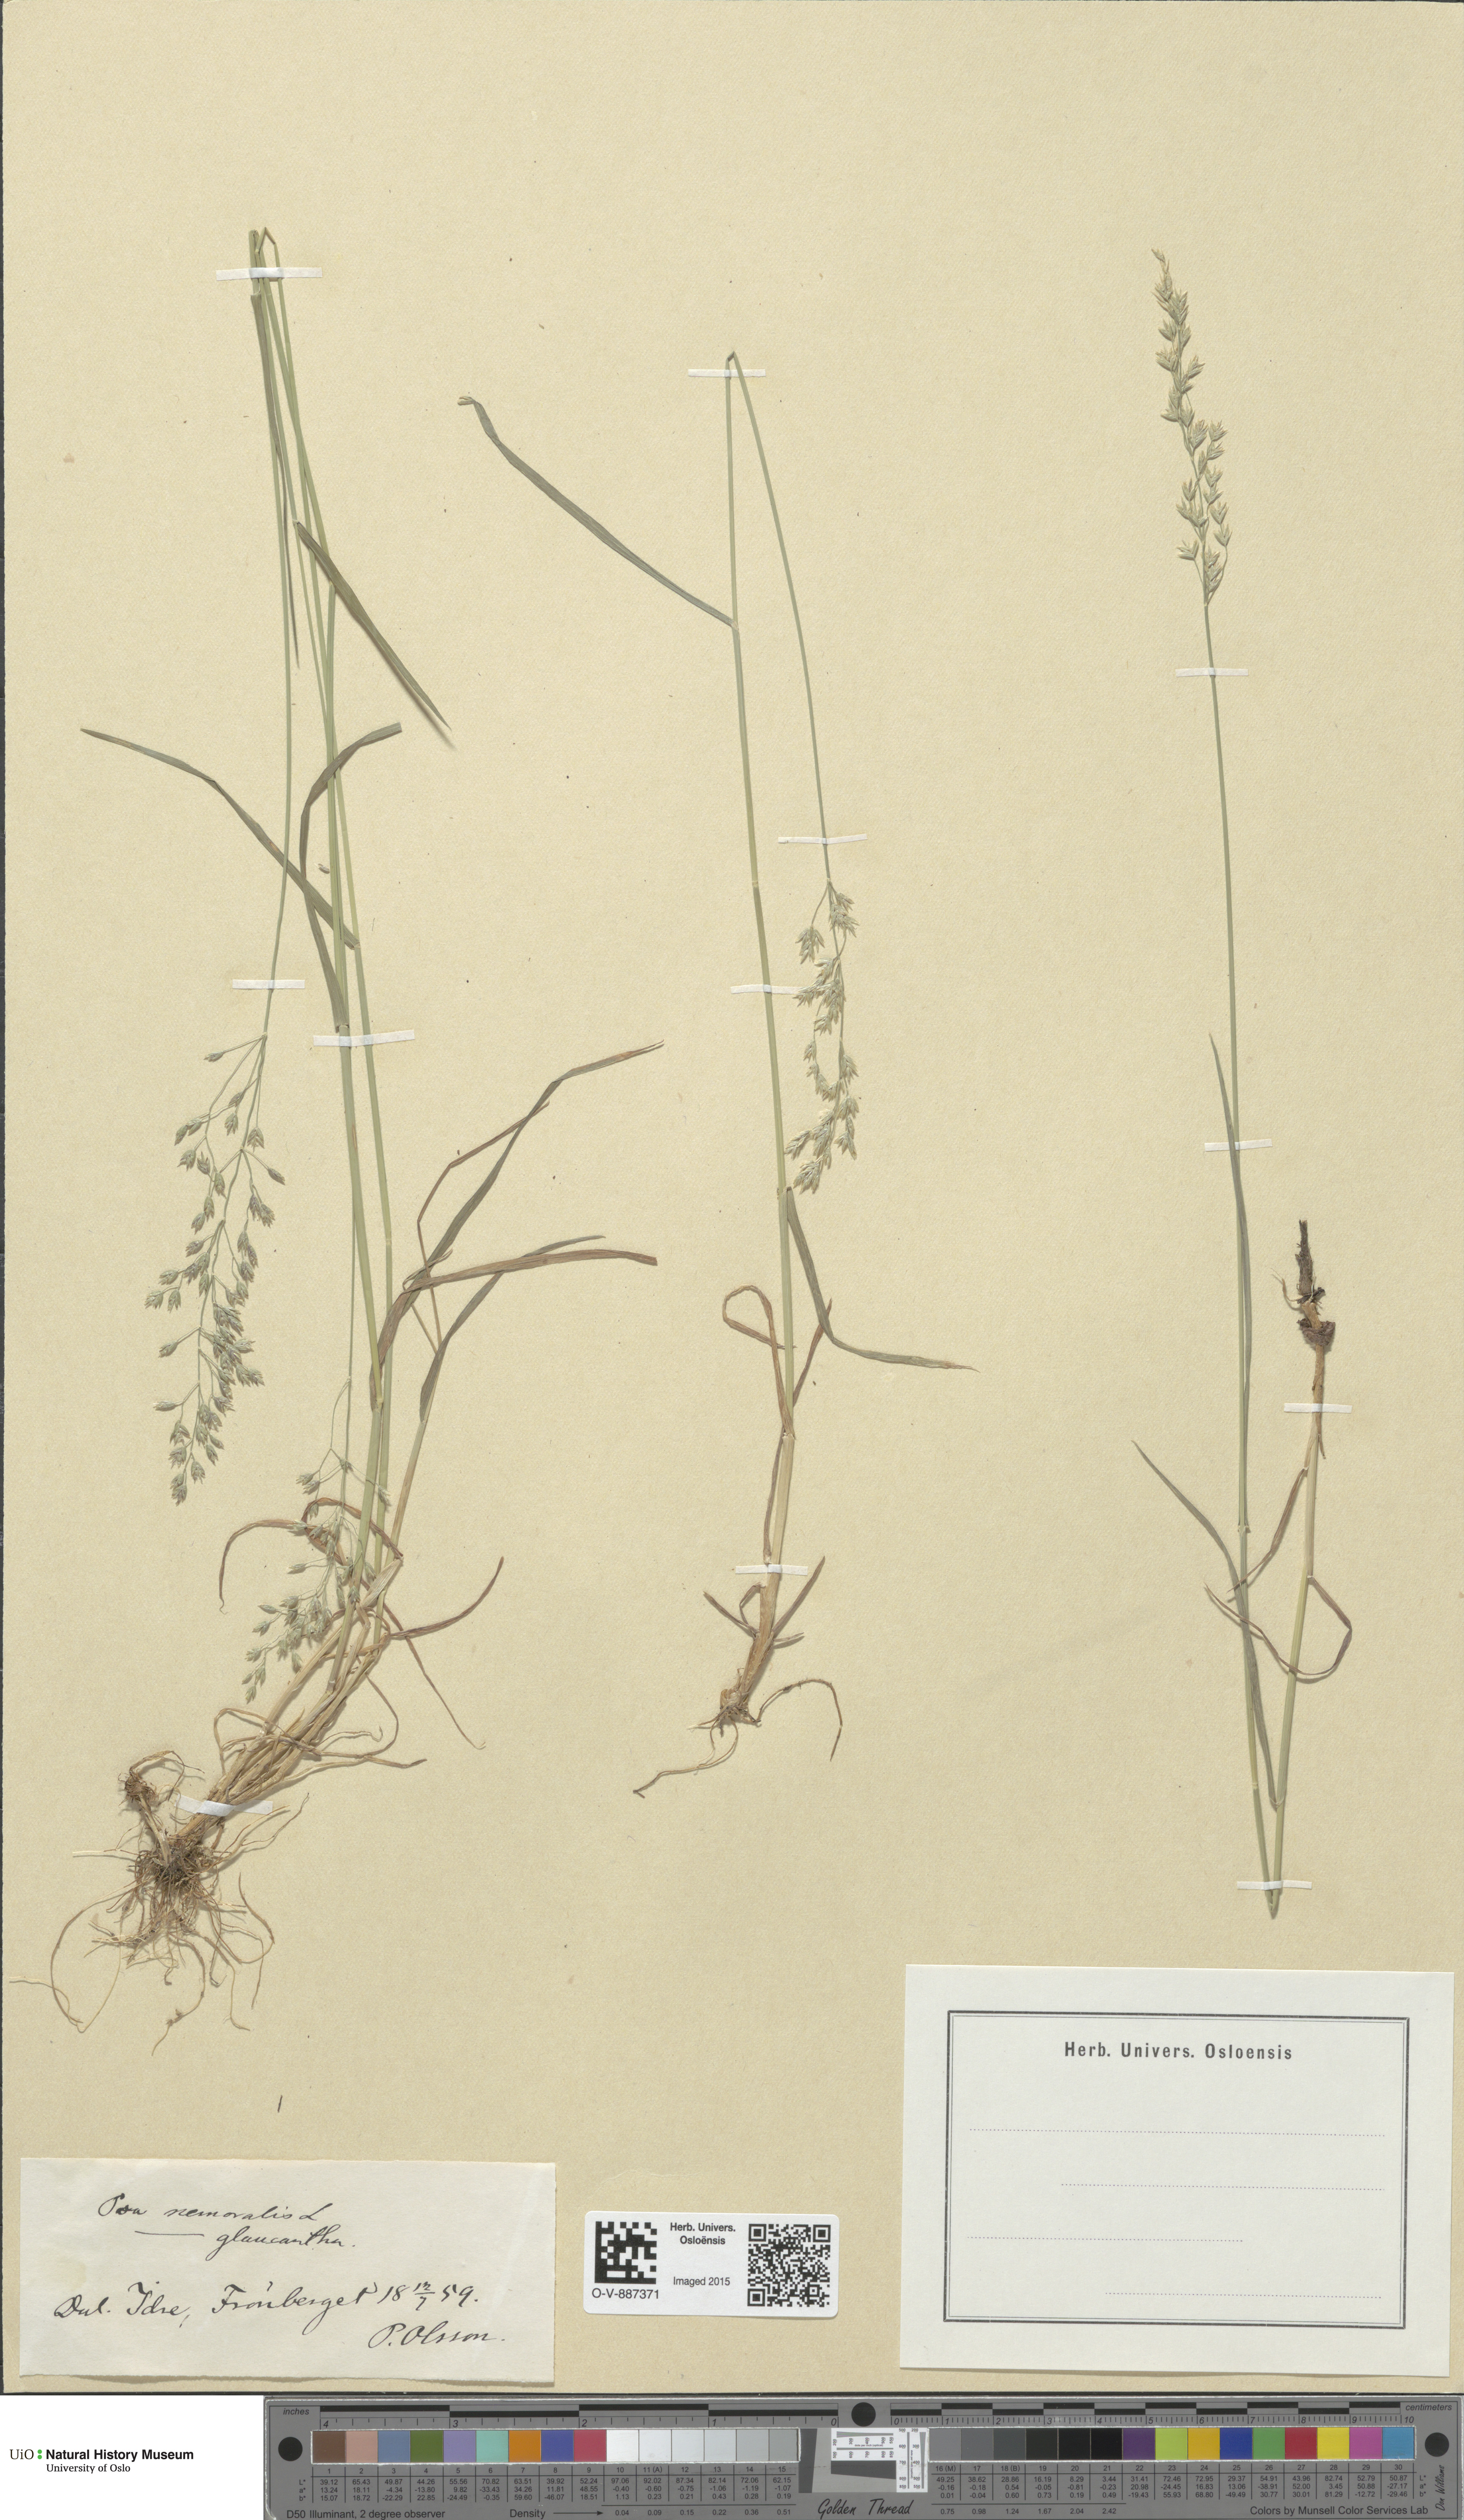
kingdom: Plantae
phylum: Tracheophyta
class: Liliopsida
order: Poales
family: Poaceae
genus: Poa
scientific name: Poa nemoralis
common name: Wood bluegrass
